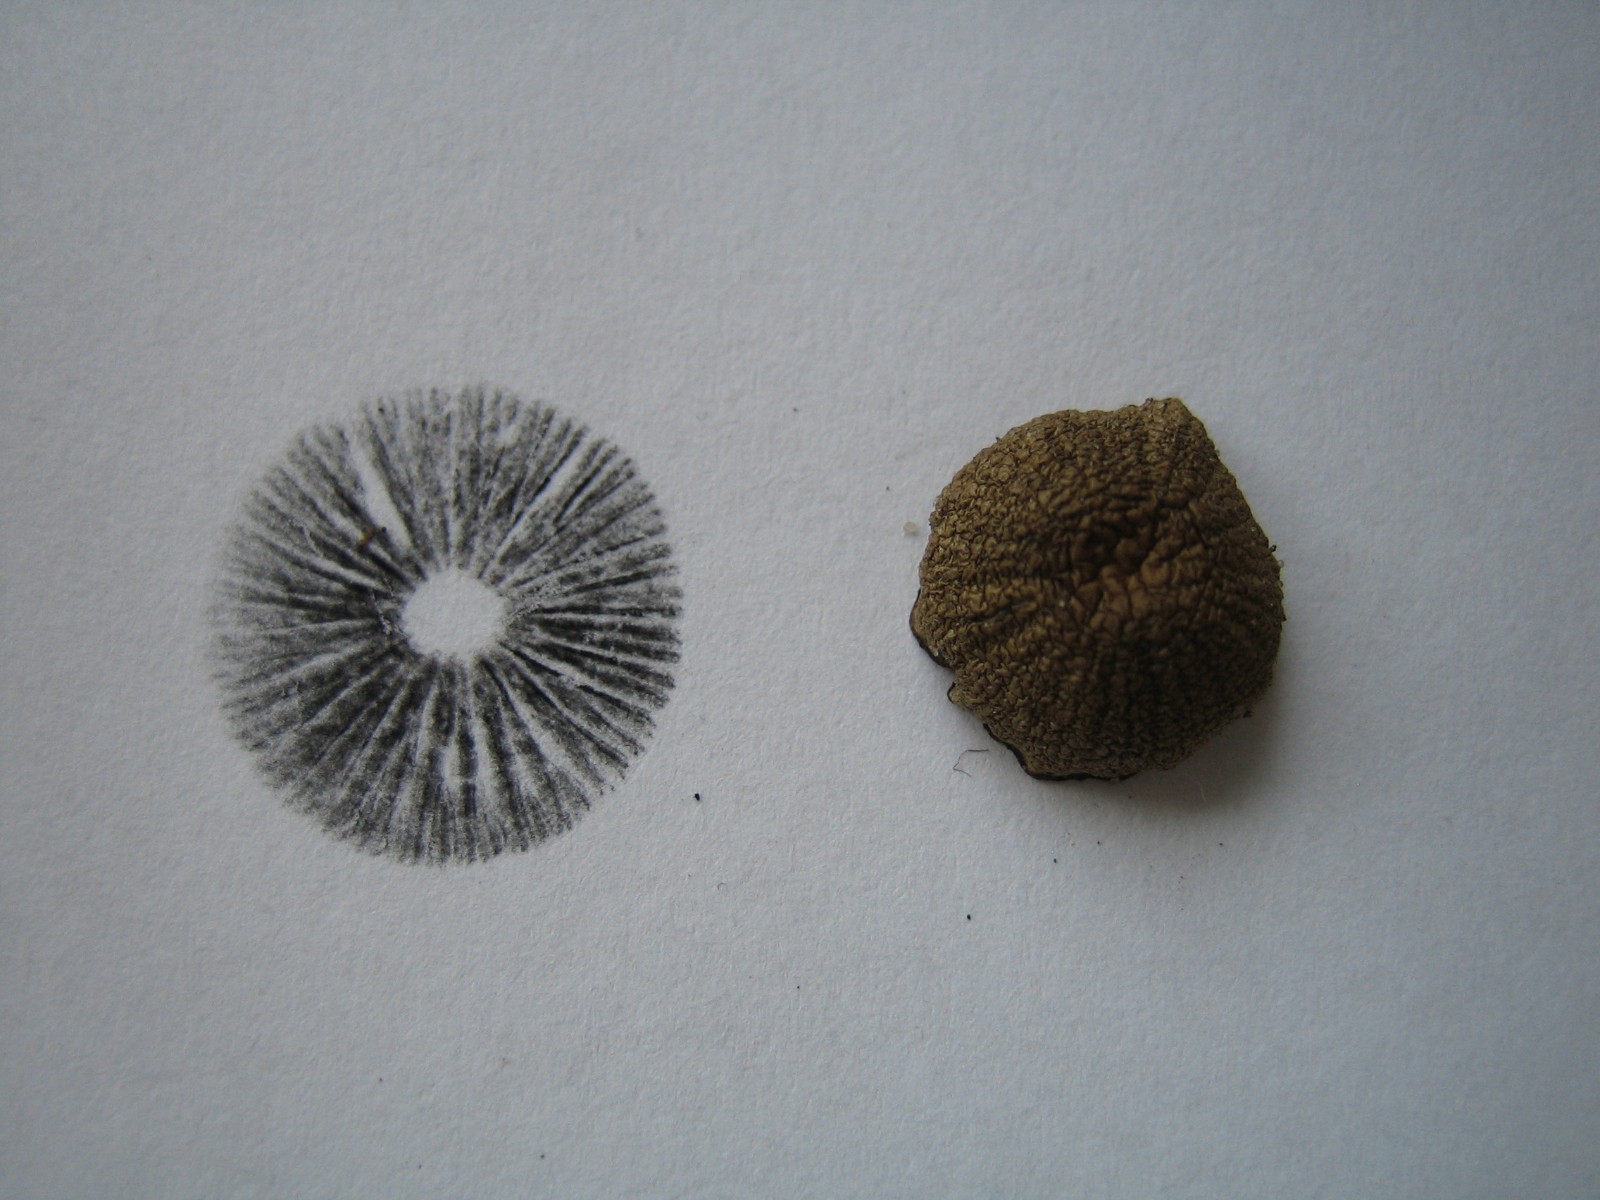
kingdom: Fungi
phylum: Basidiomycota
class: Agaricomycetes
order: Agaricales
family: Psathyrellaceae
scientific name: Psathyrellaceae
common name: mørkhatfamilien
